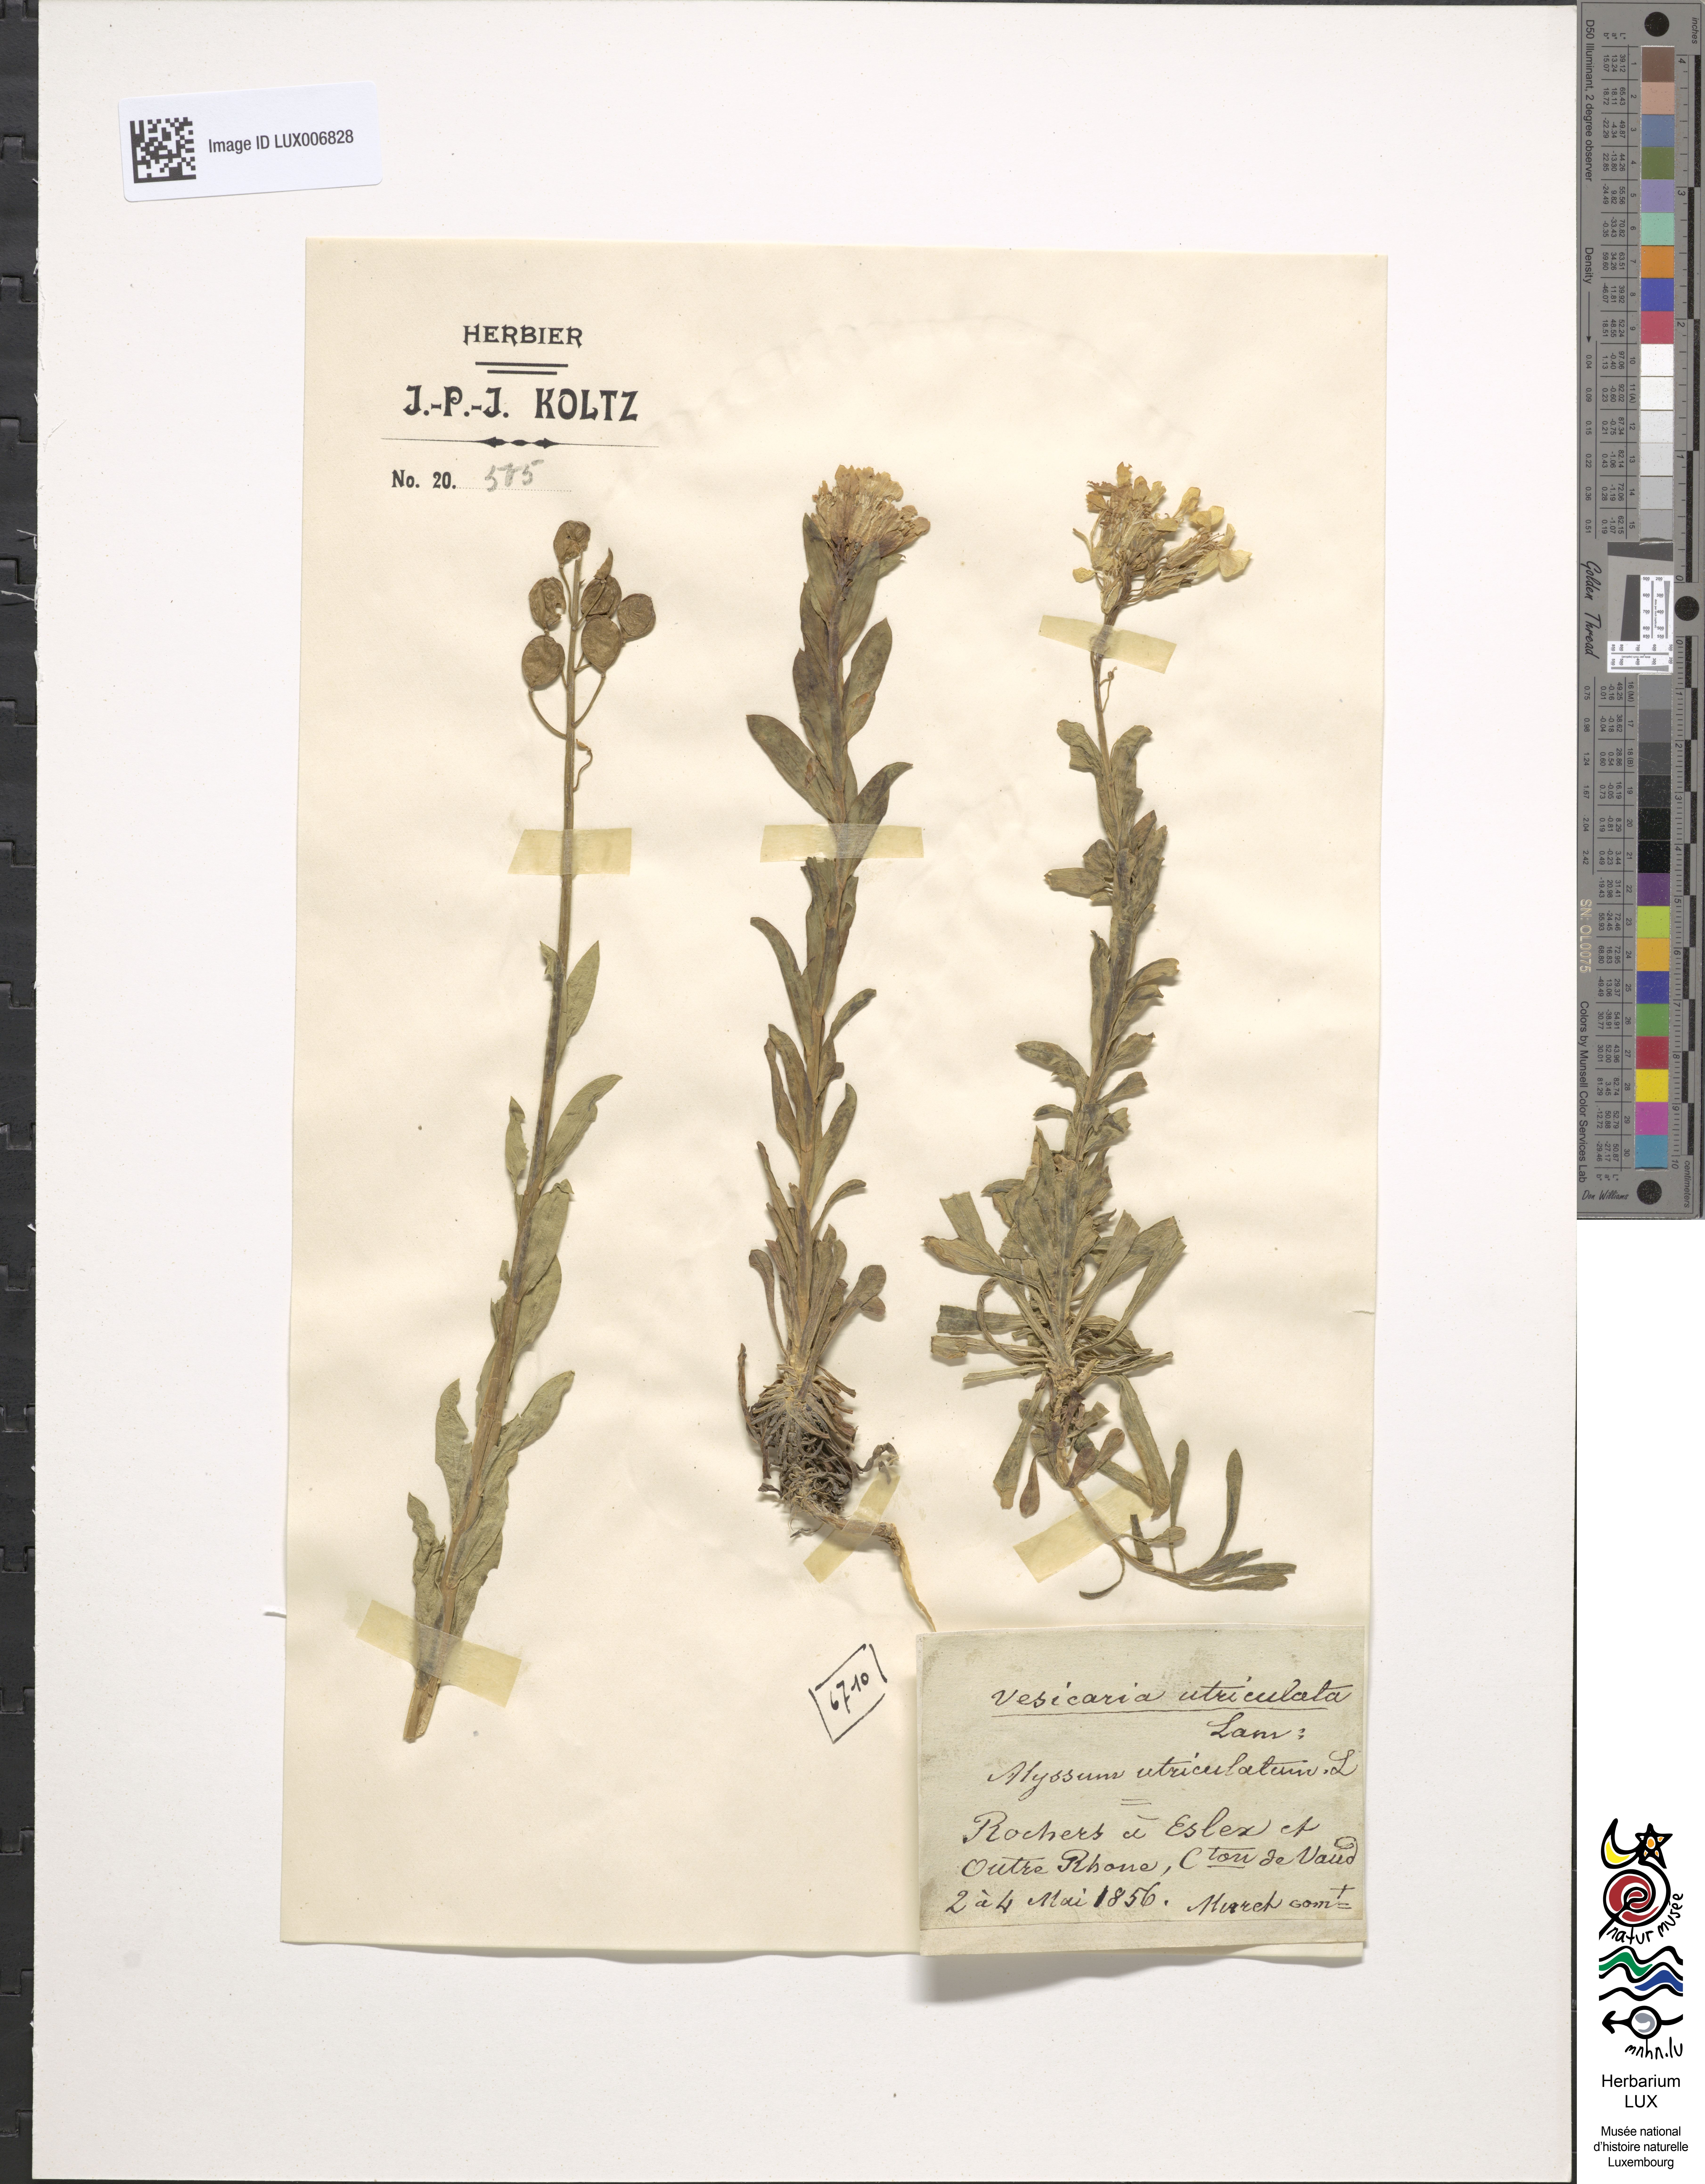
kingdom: Plantae
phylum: Tracheophyta
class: Magnoliopsida
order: Brassicales
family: Brassicaceae
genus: Alyssoides
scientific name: Alyssoides utriculata
